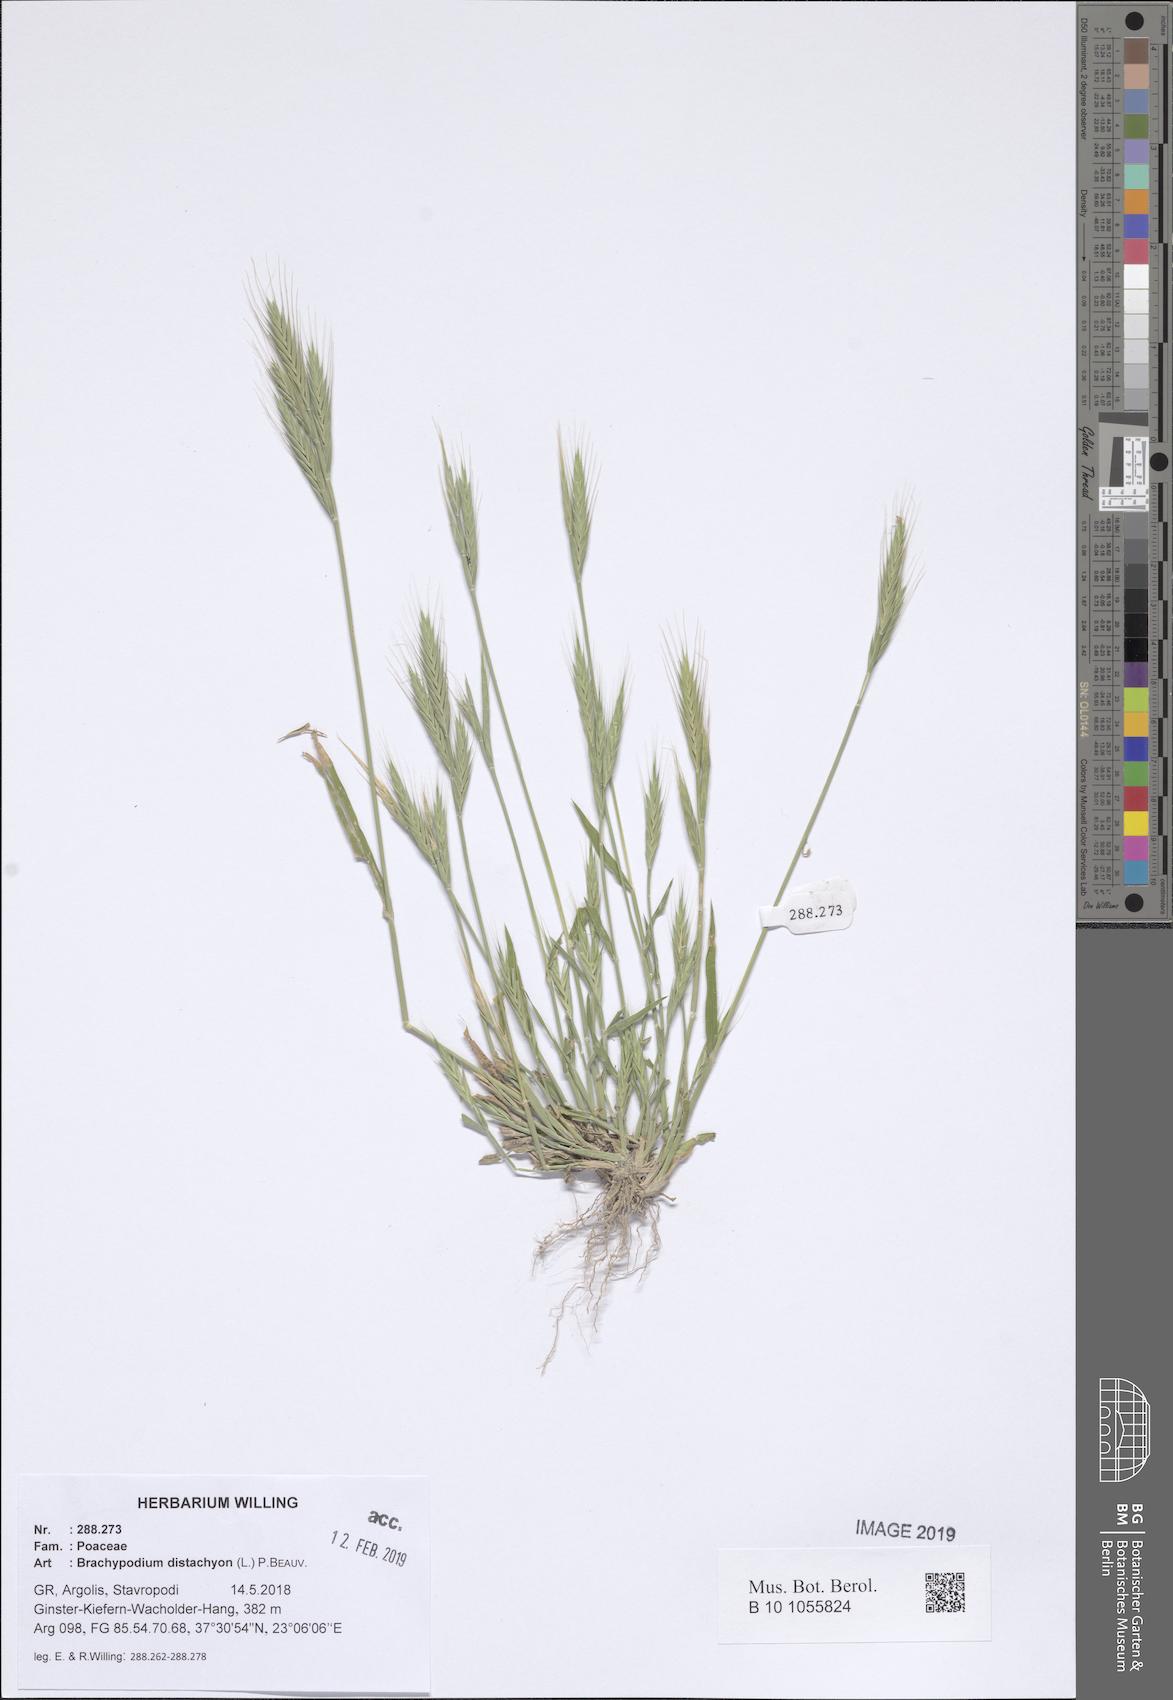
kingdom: Plantae
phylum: Tracheophyta
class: Liliopsida
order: Poales
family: Poaceae
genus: Brachypodium
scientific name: Brachypodium distachyon
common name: Stiff brome
